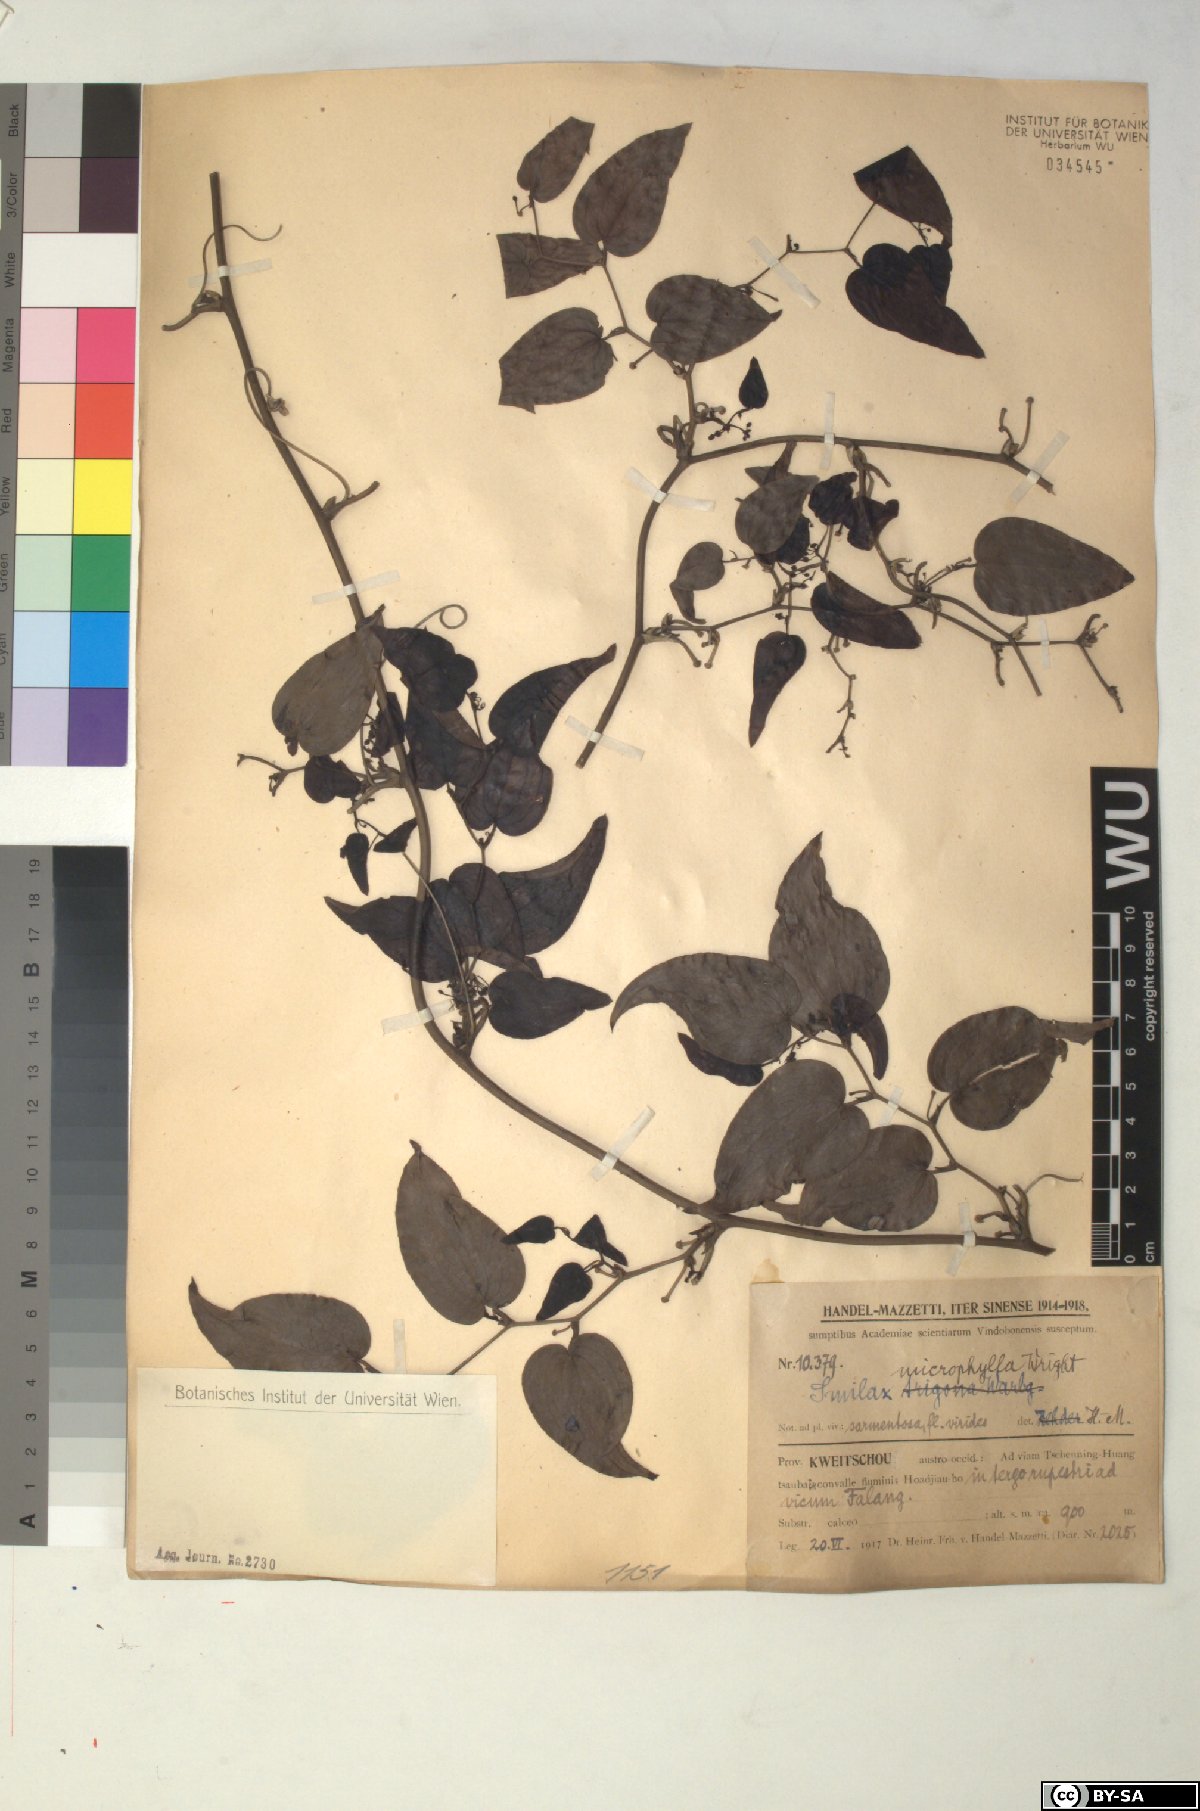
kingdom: Plantae
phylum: Tracheophyta
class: Liliopsida
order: Liliales
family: Smilacaceae
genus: Smilax
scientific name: Smilax microphylla
